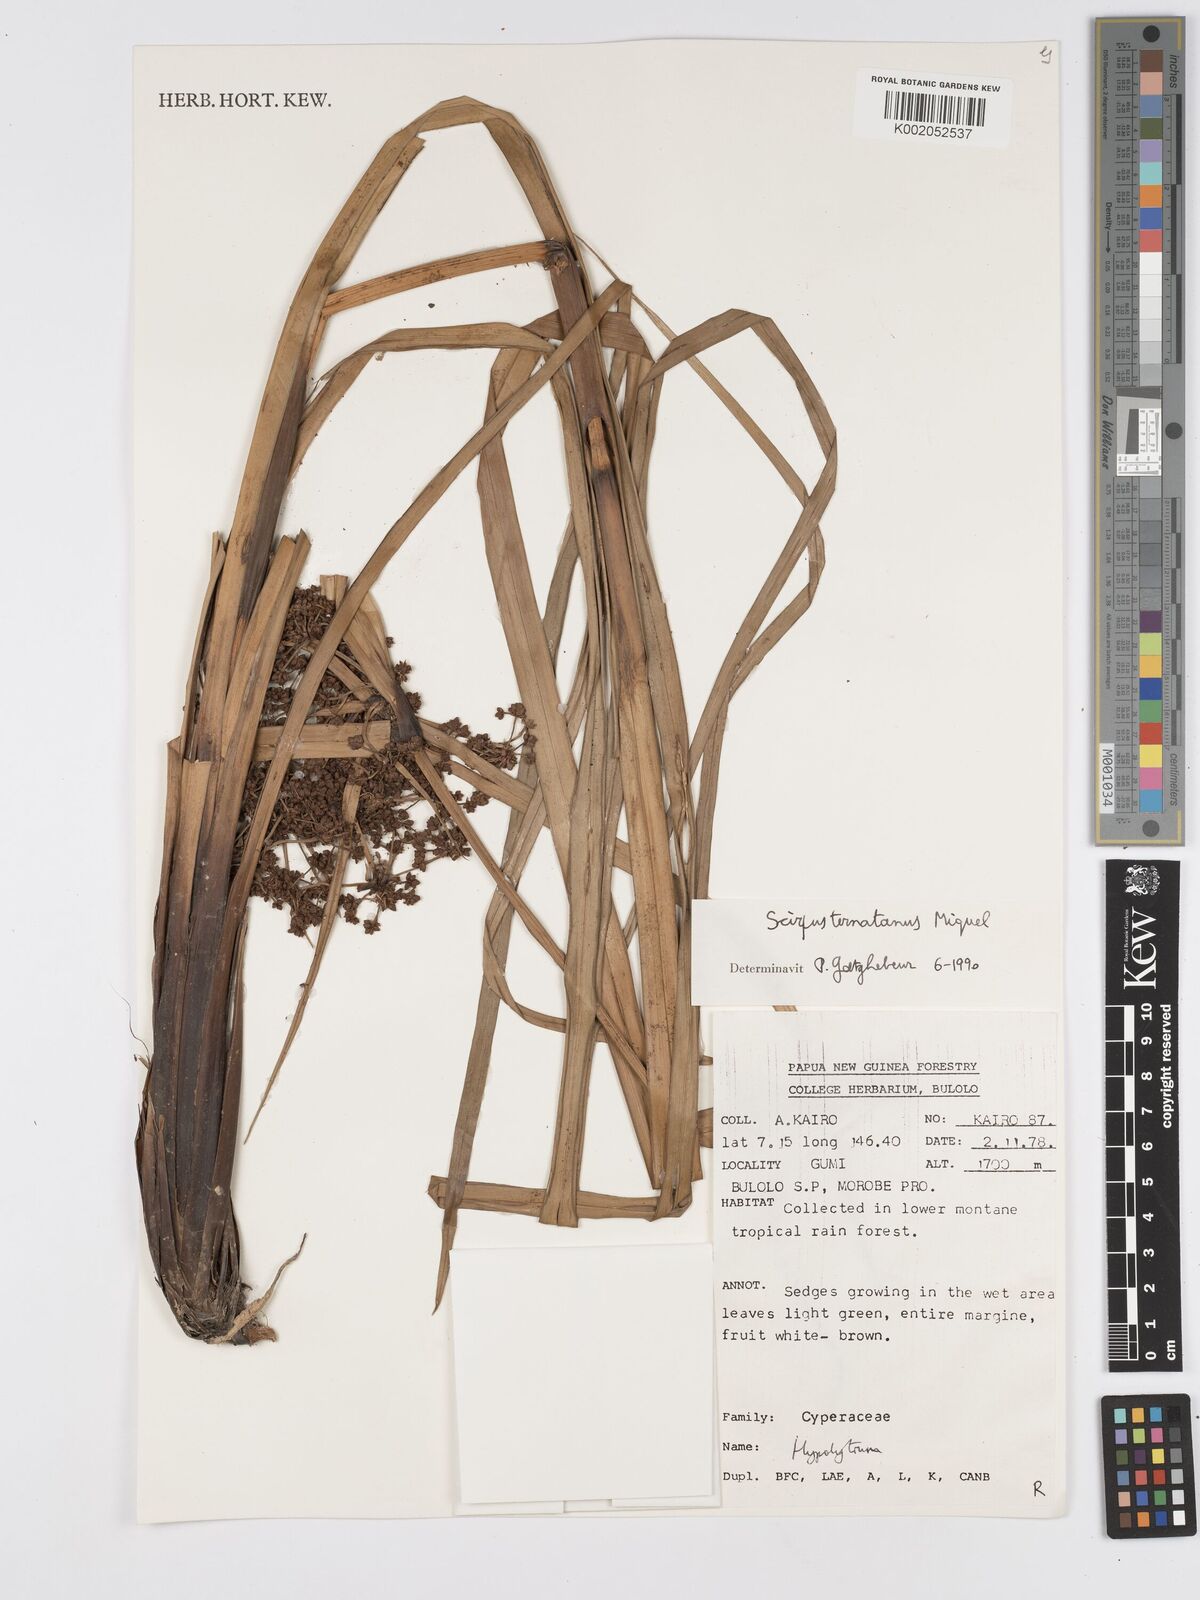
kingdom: Plantae
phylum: Tracheophyta
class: Liliopsida
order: Poales
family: Cyperaceae
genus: Scirpus
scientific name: Scirpus
